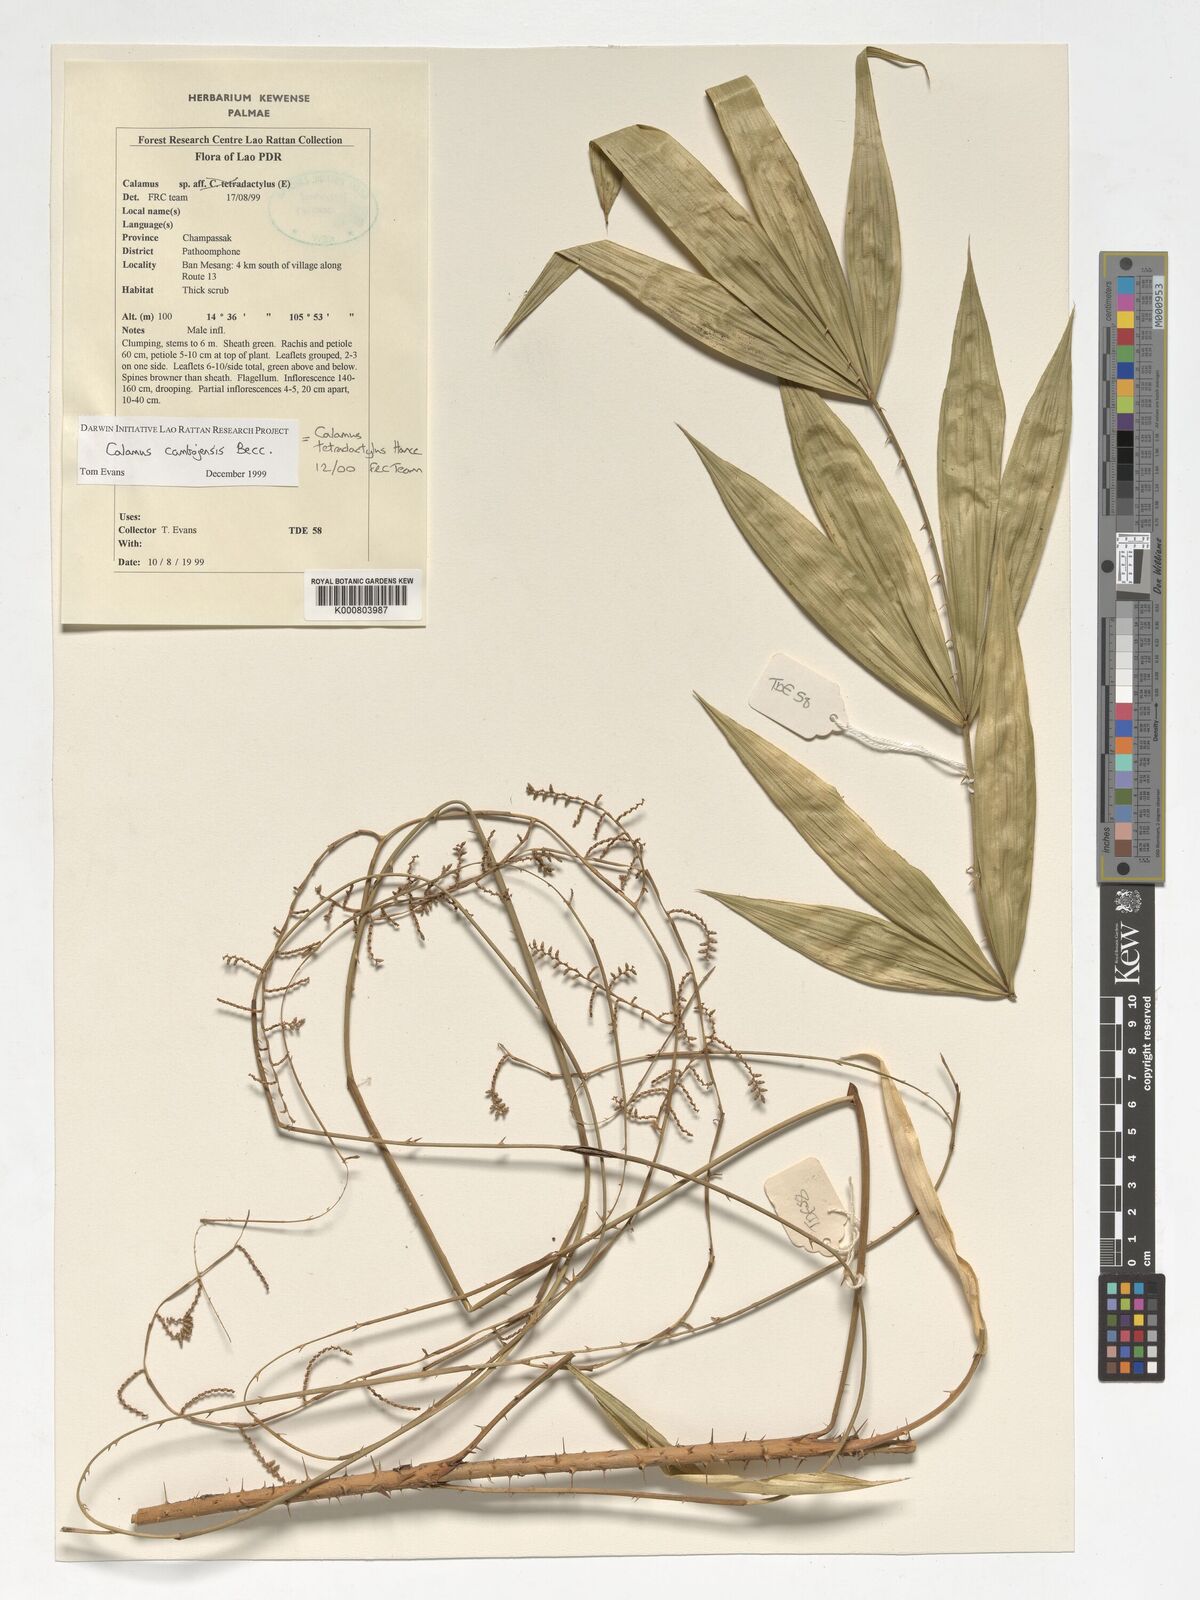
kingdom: Plantae
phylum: Tracheophyta
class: Liliopsida
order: Arecales
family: Arecaceae
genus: Calamus
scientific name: Calamus tetradactylus
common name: White rattan
